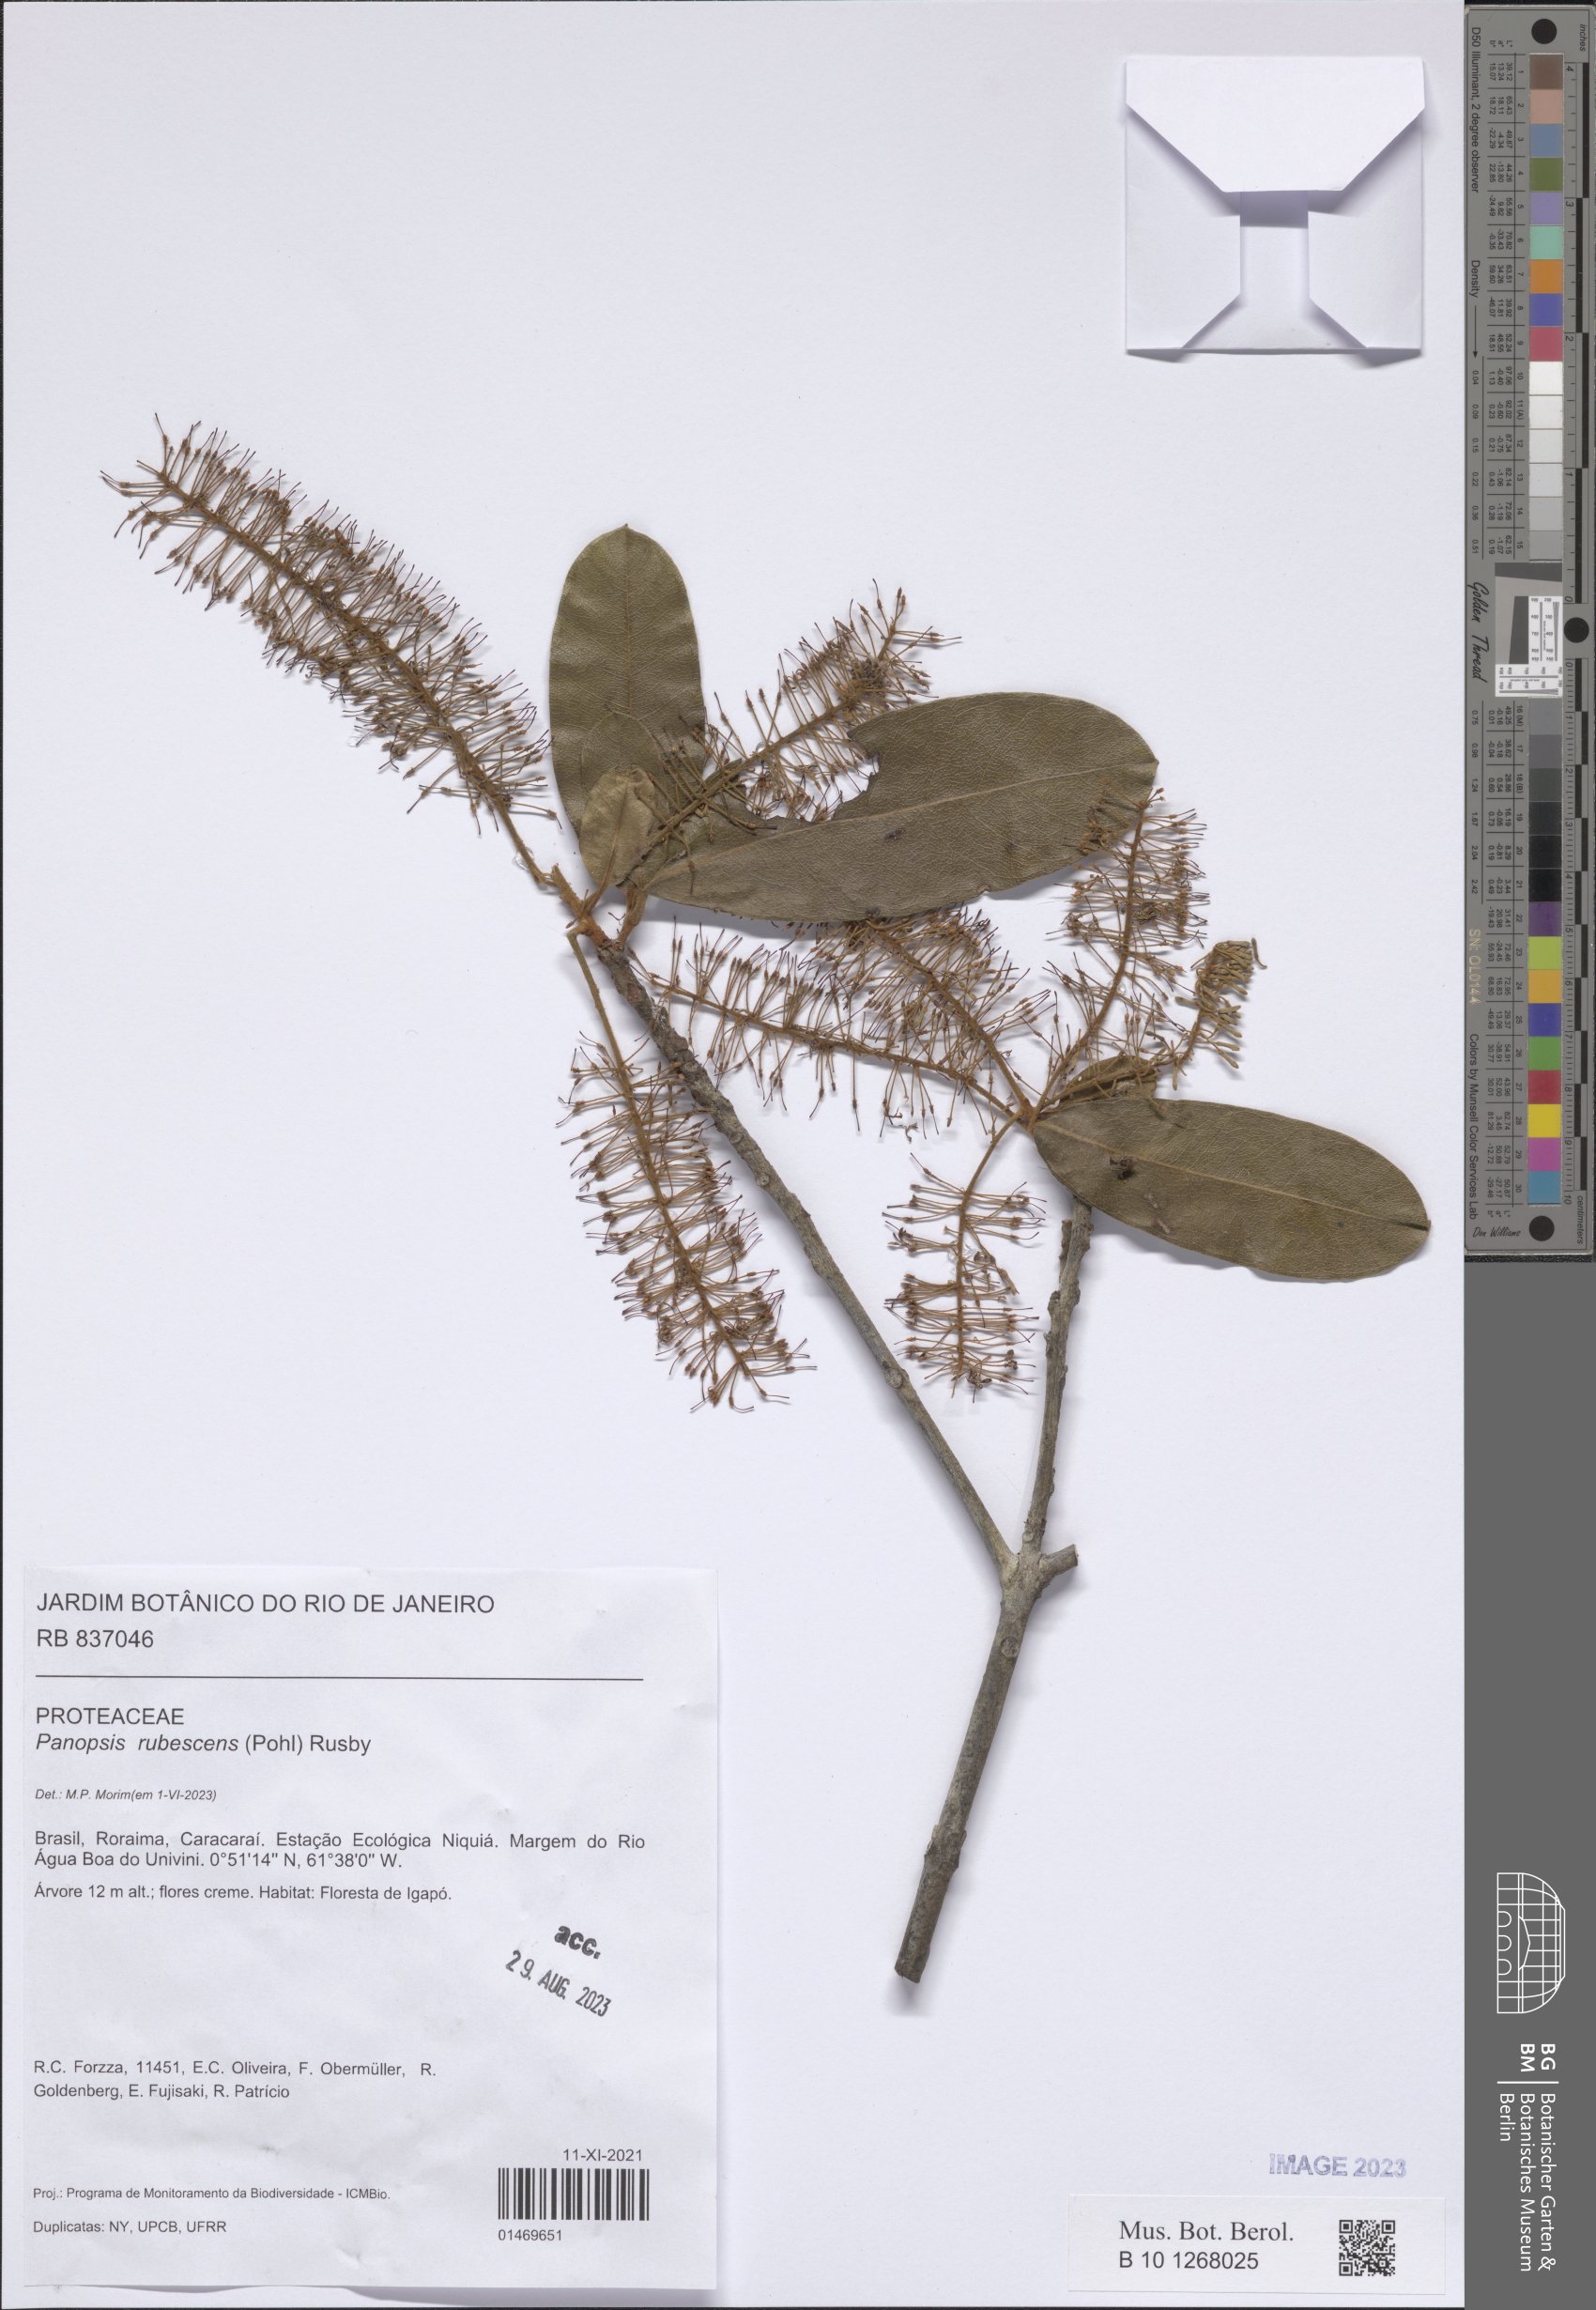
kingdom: Plantae
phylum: Tracheophyta
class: Magnoliopsida
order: Proteales
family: Proteaceae
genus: Panopsis
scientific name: Panopsis rubescens
